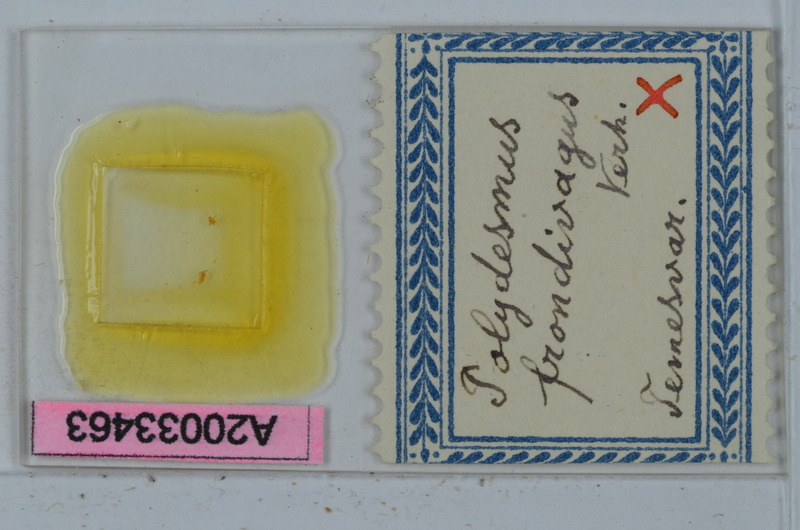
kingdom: Animalia
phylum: Arthropoda
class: Diplopoda
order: Polydesmida
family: Polydesmidae
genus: Polydesmus
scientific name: Polydesmus transsylvanicus
